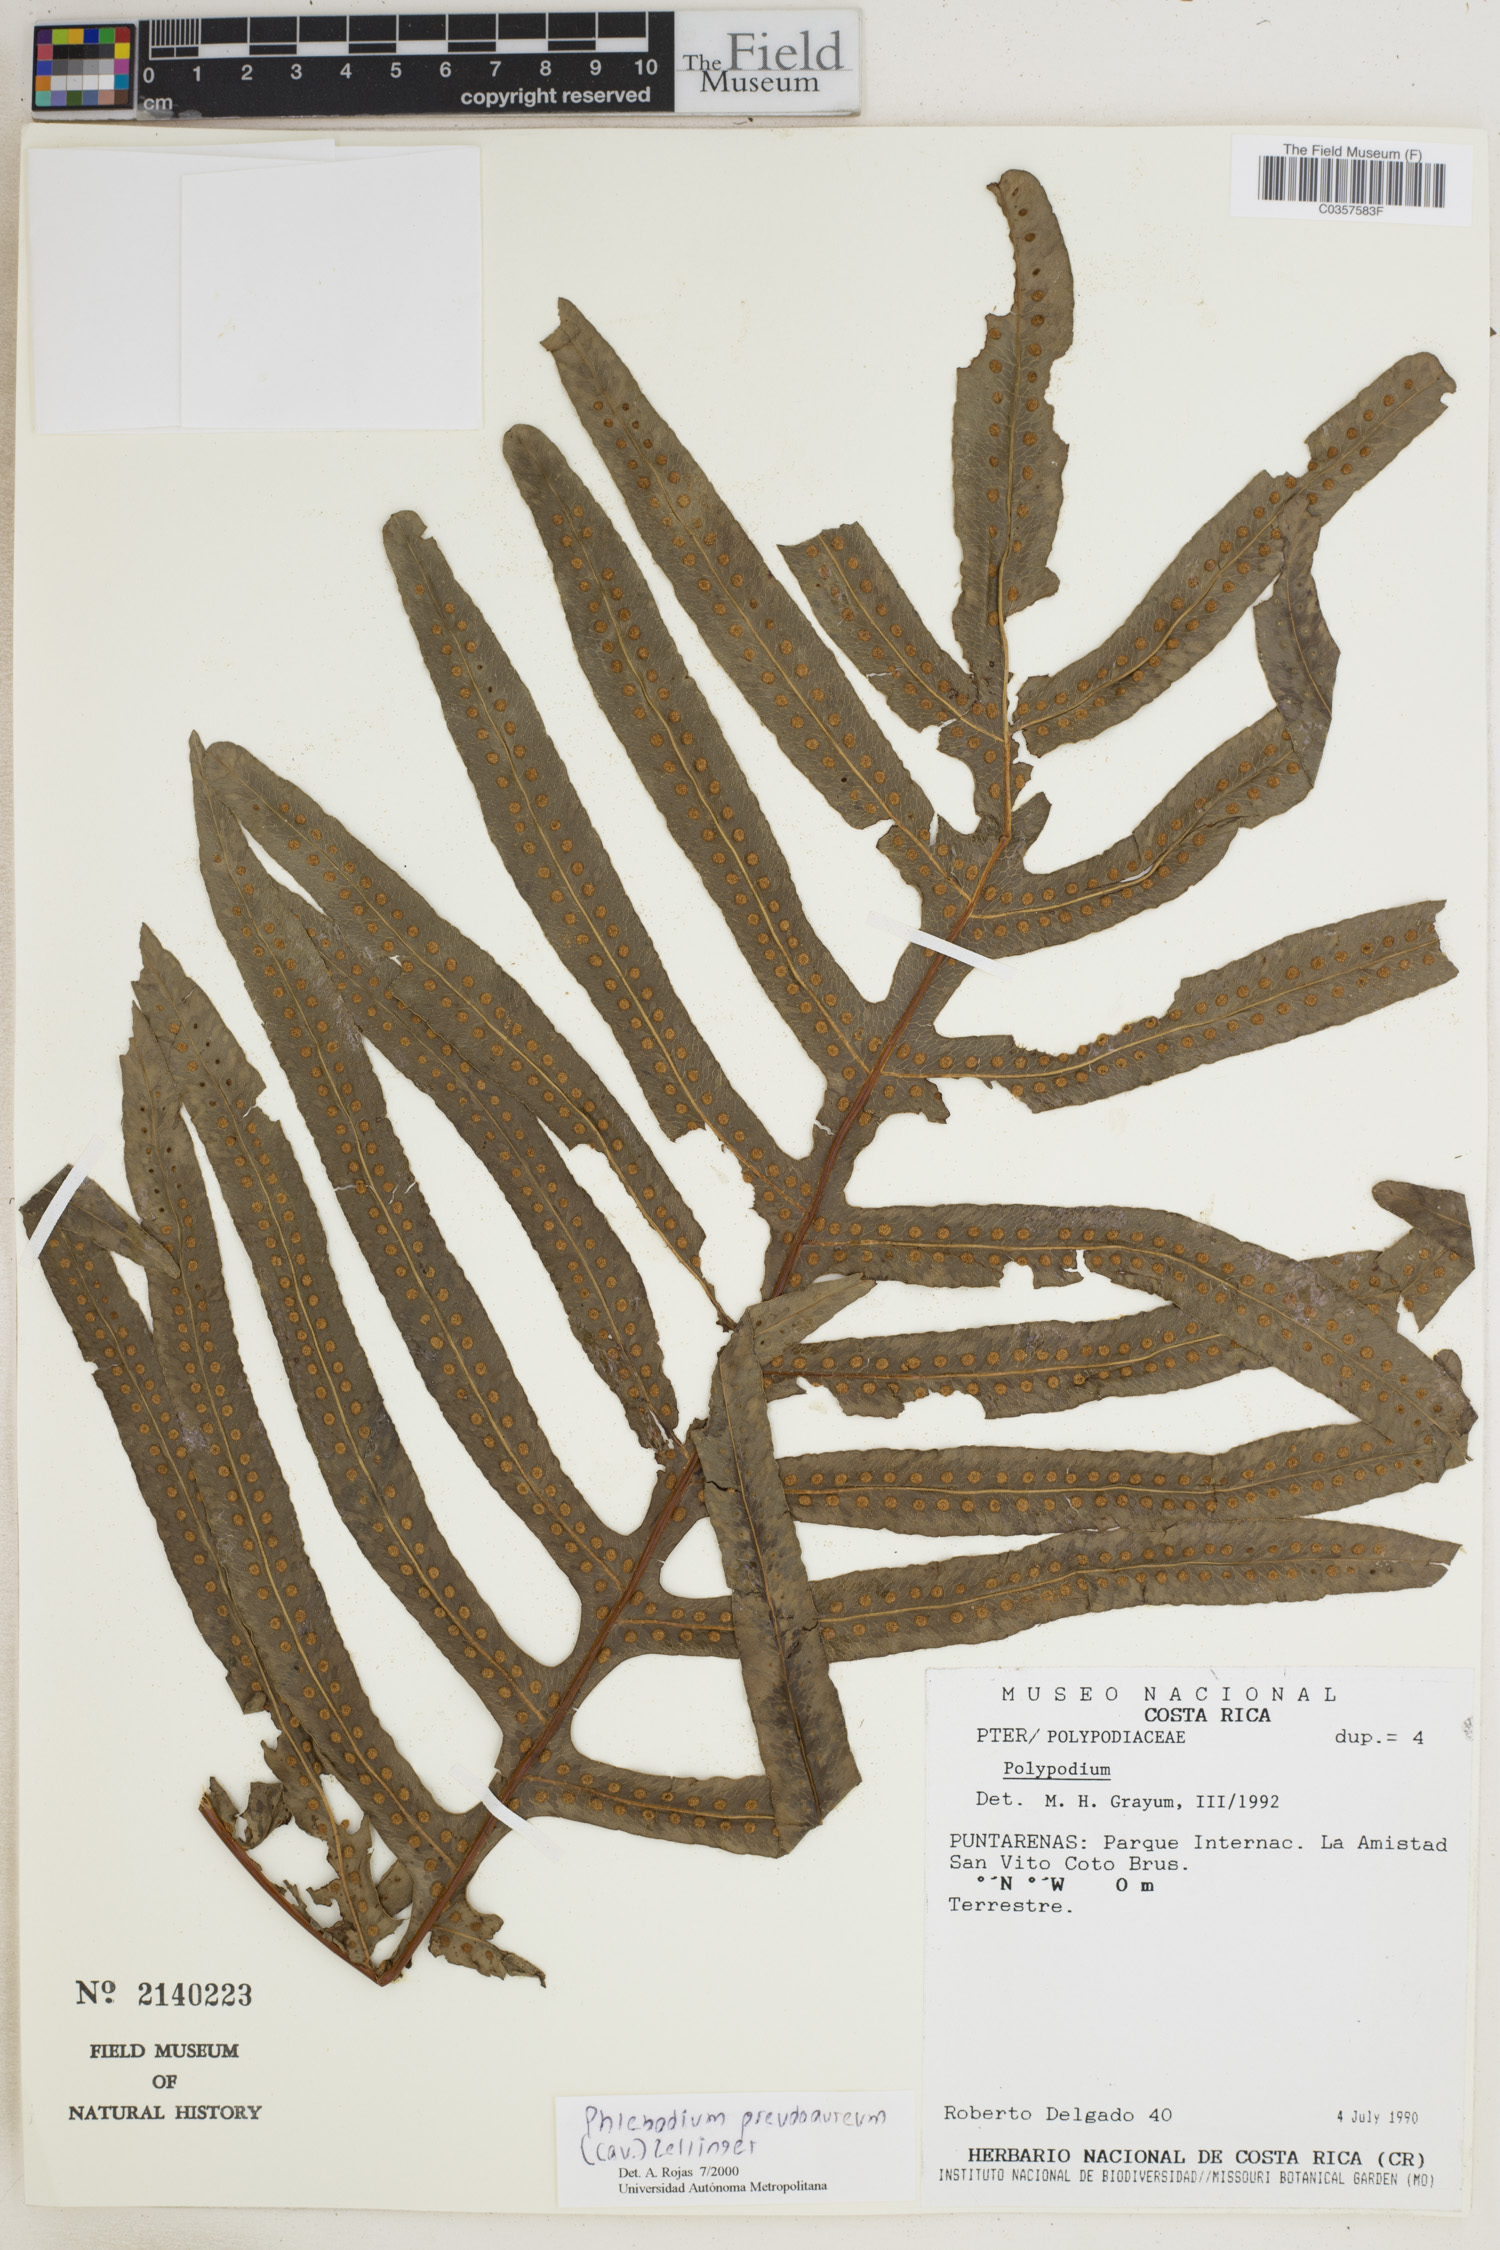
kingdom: Plantae
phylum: Tracheophyta
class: Polypodiopsida
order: Polypodiales
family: Polypodiaceae
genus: Phlebodium
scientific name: Phlebodium pseudoaureum
